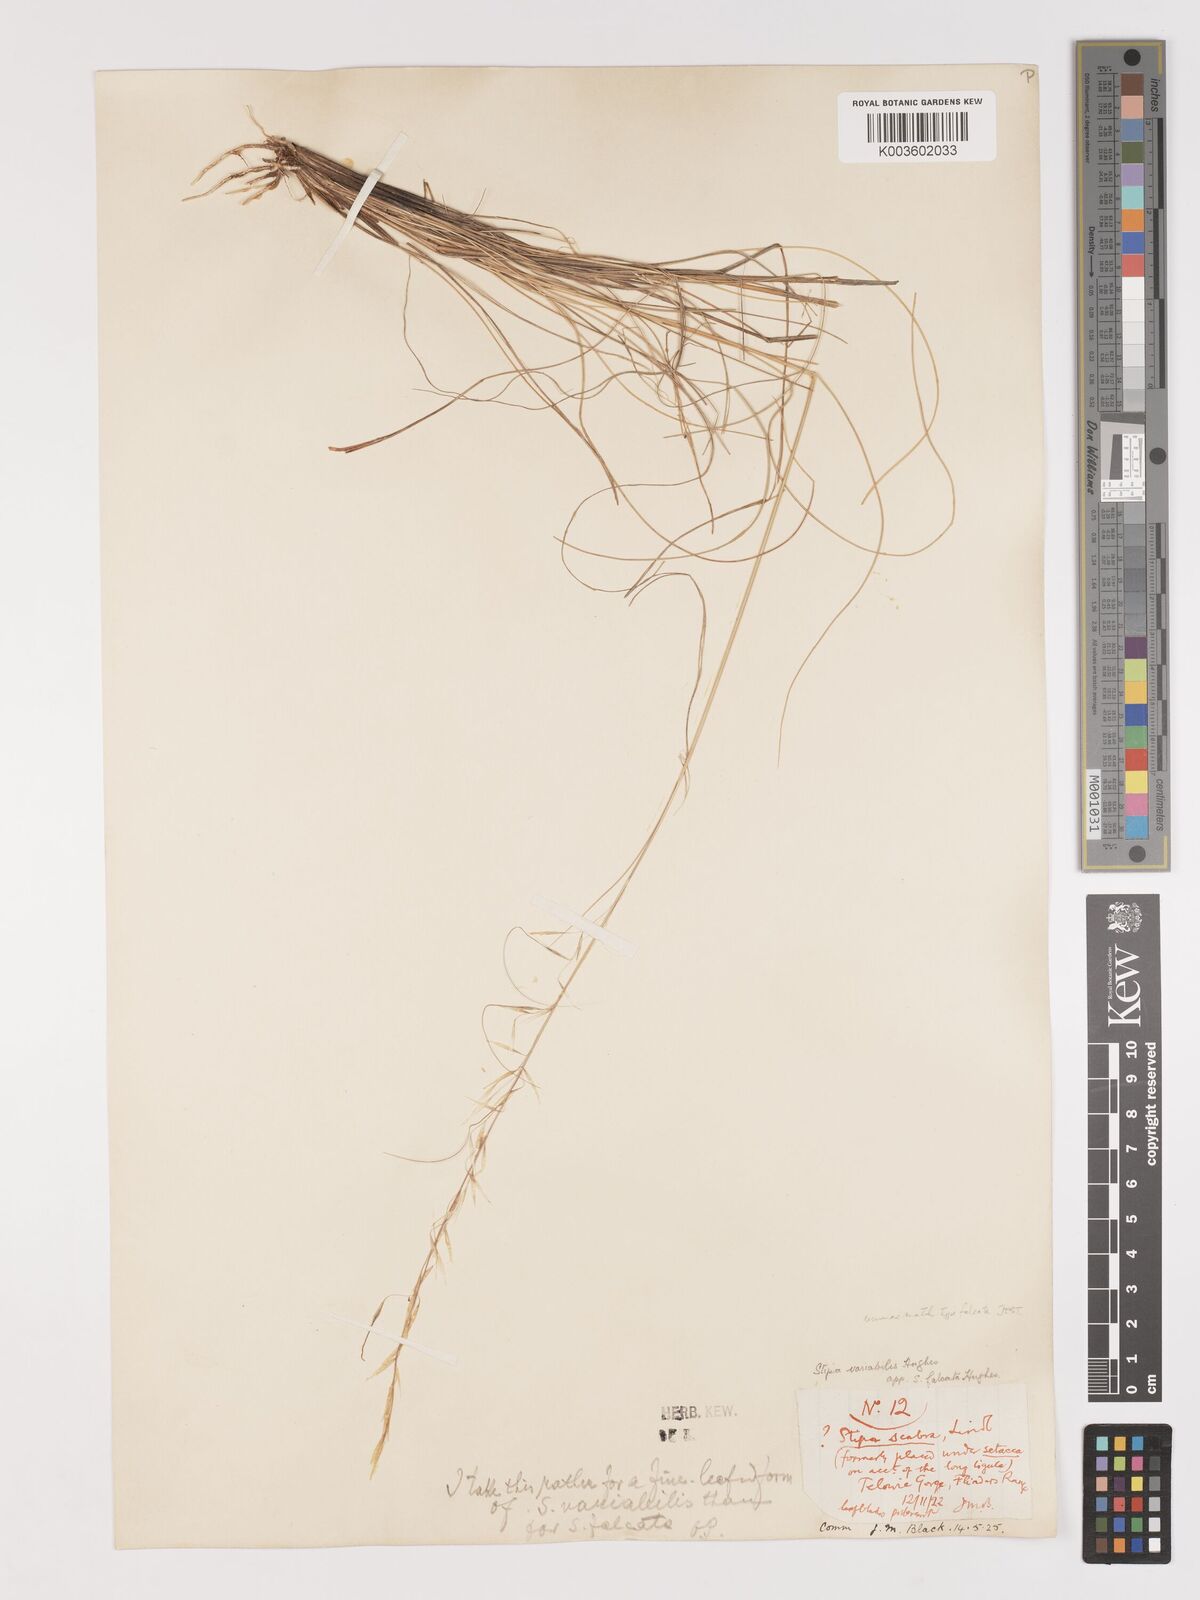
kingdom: Plantae
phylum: Tracheophyta
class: Liliopsida
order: Poales
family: Poaceae
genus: Austrostipa
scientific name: Austrostipa scabra
